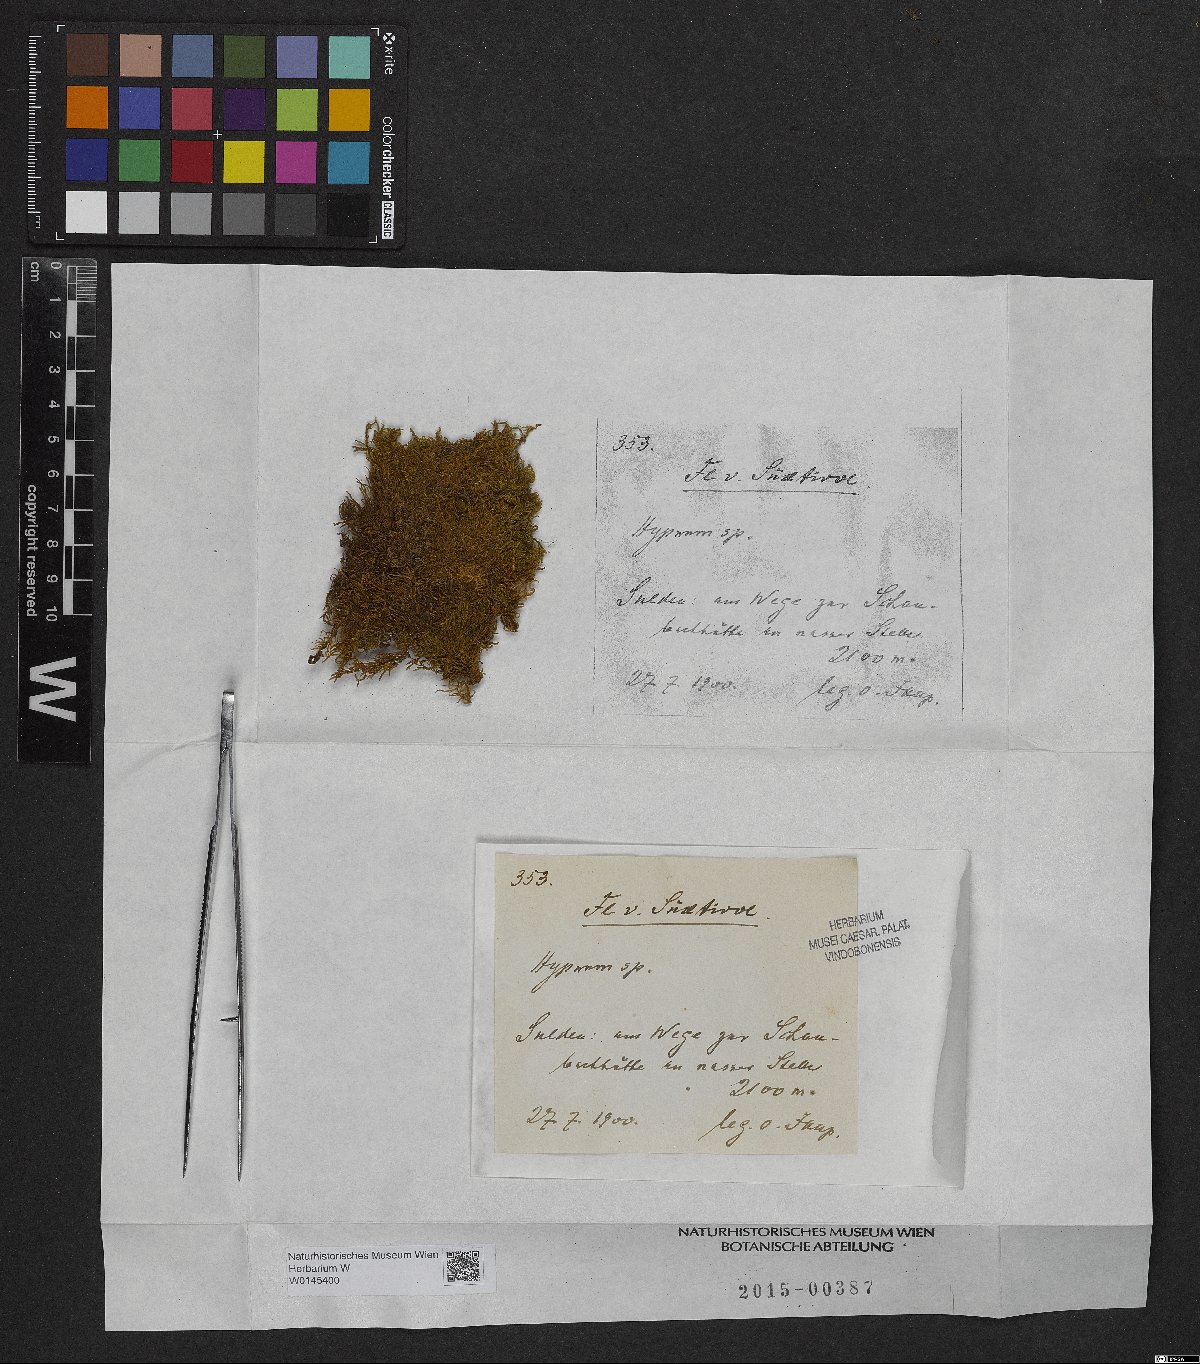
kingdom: Plantae
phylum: Bryophyta
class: Bryopsida
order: Hypnales
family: Hypnaceae
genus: Hypnum
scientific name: Hypnum
